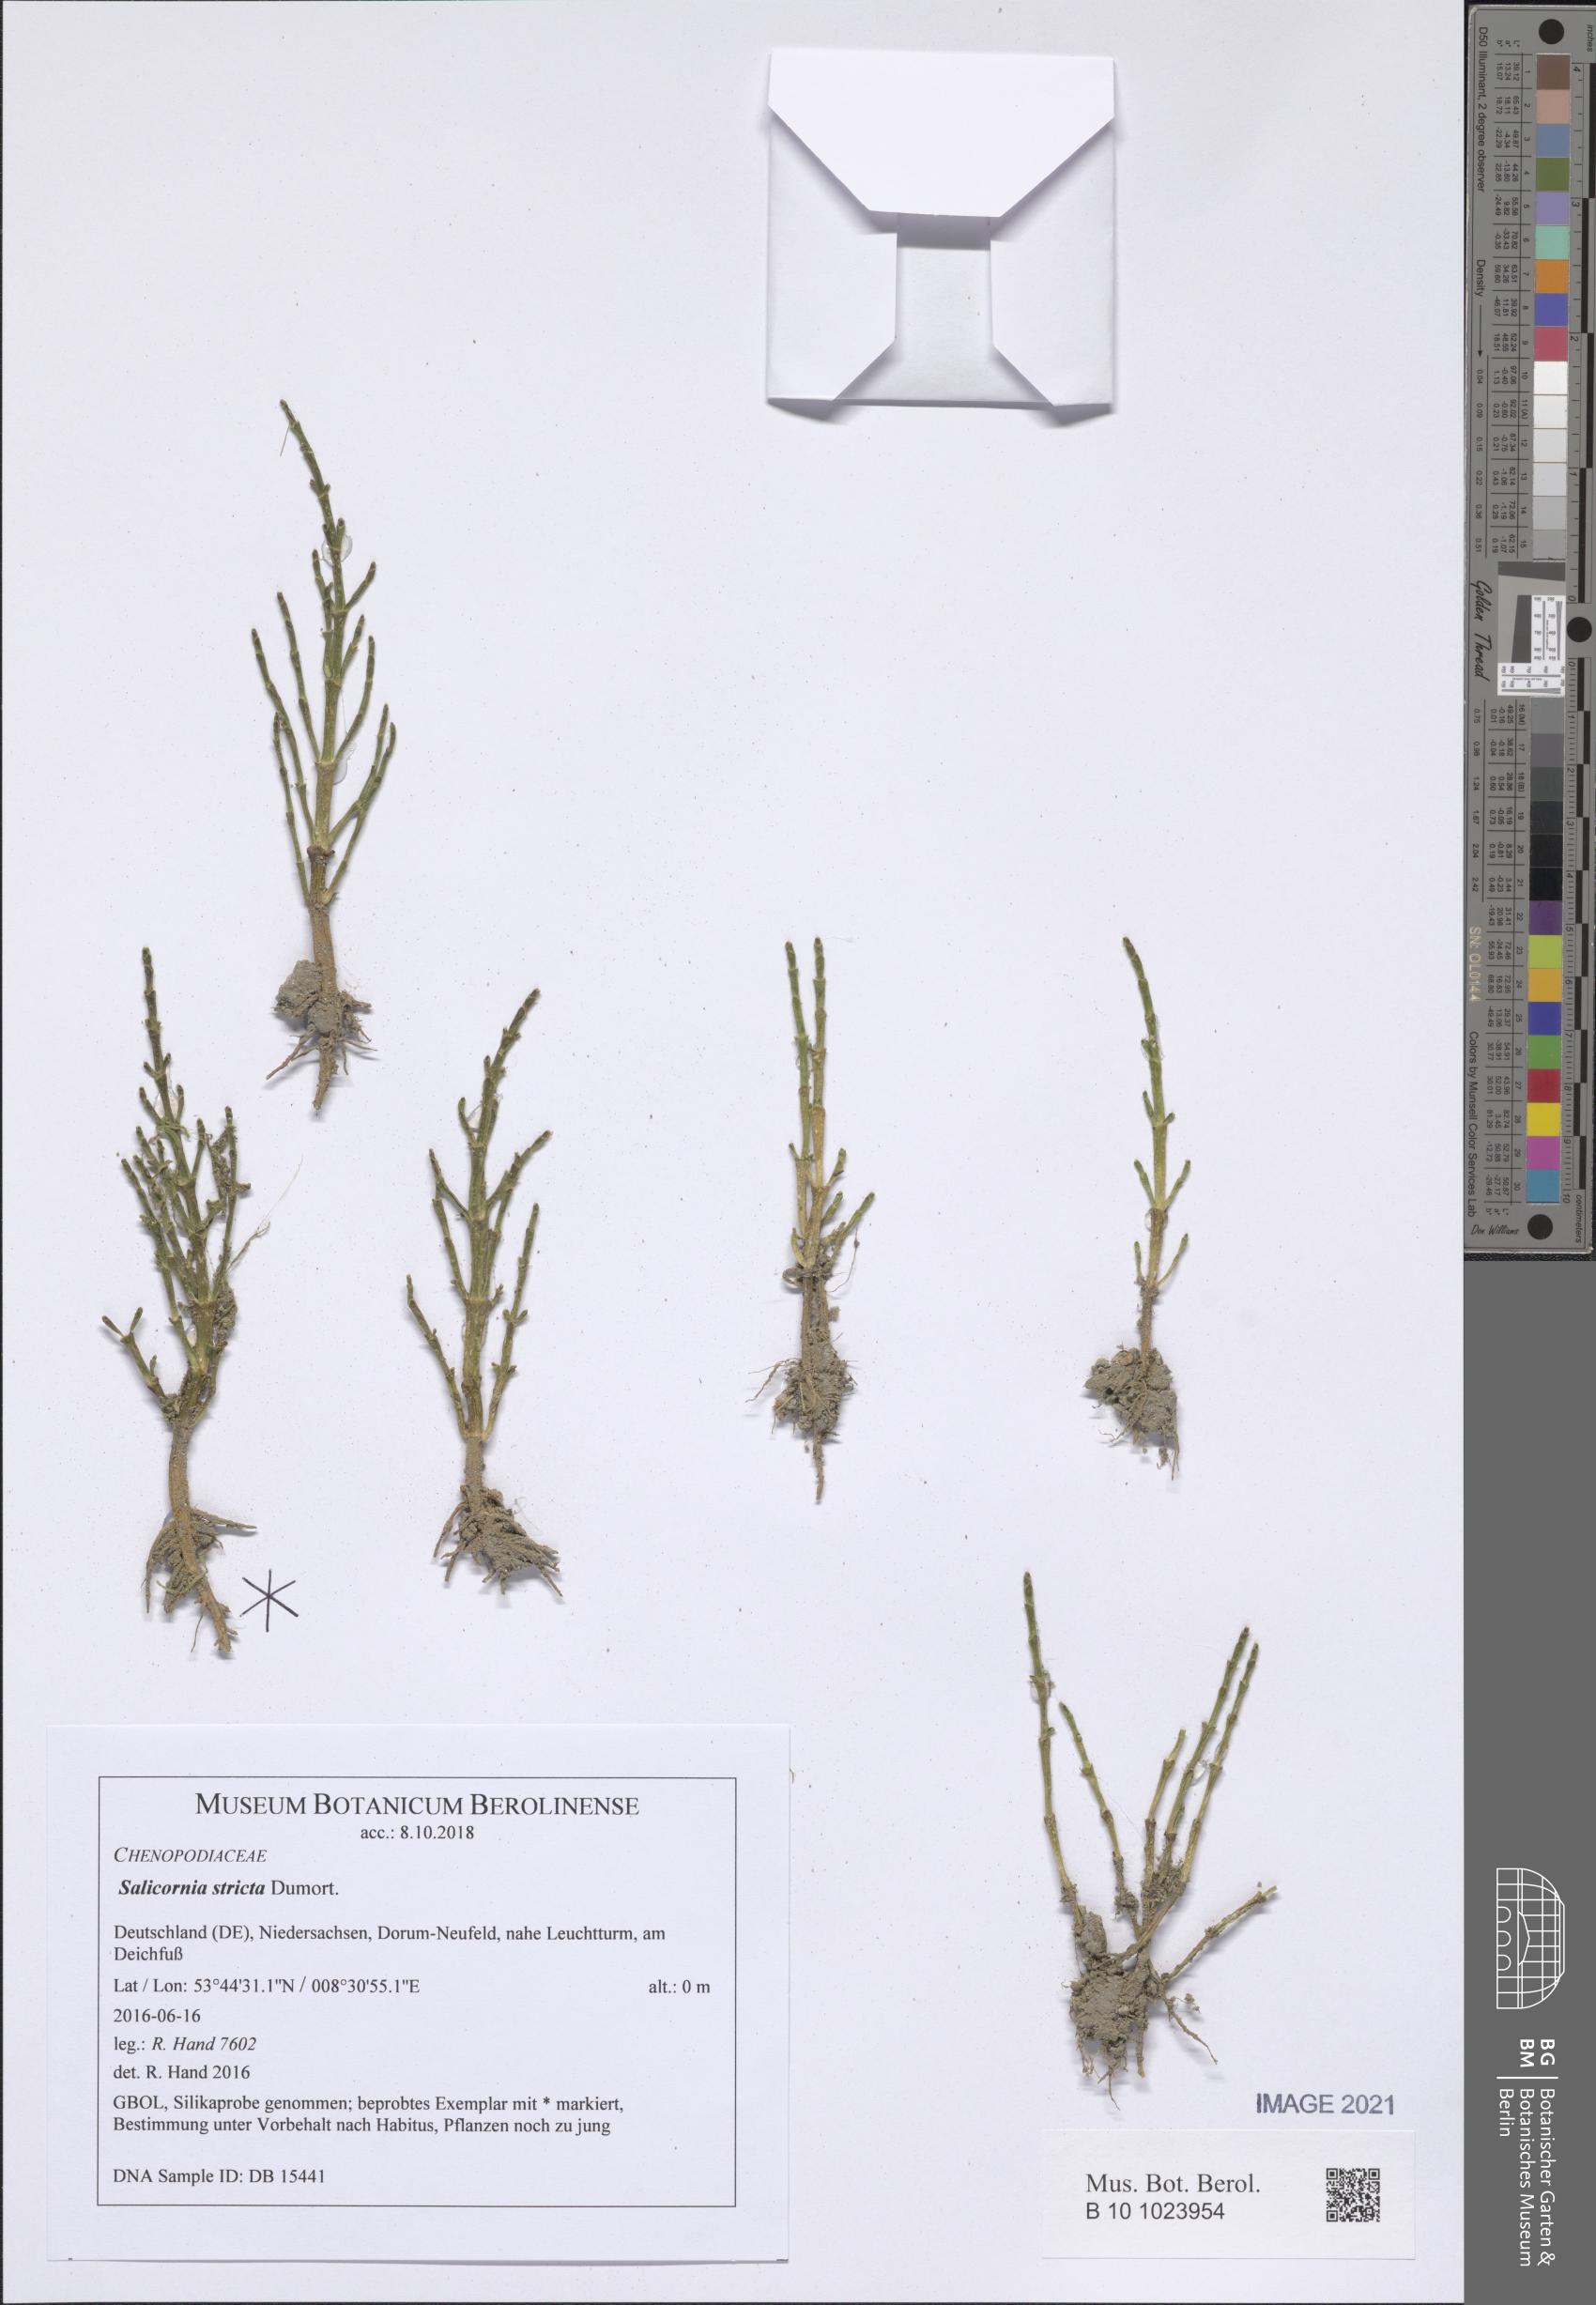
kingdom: Plantae
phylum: Tracheophyta
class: Magnoliopsida
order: Caryophyllales
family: Amaranthaceae
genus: Salicornia
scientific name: Salicornia procumbens
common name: Long-spiked glasswort
